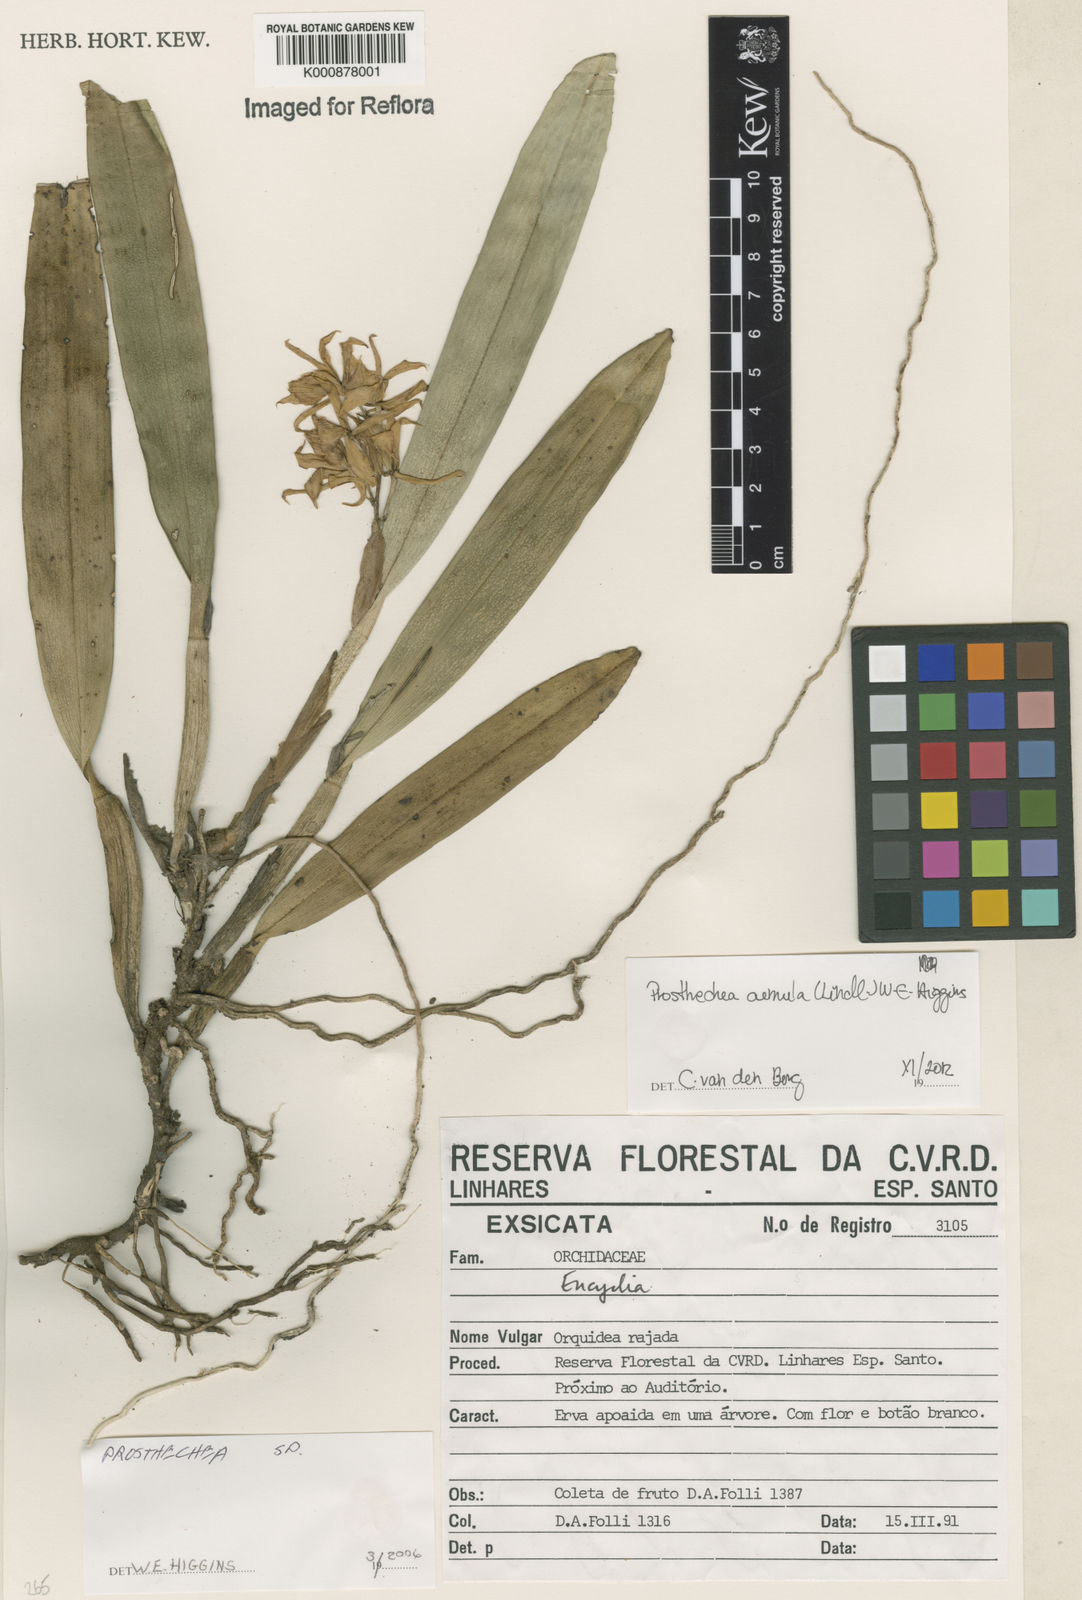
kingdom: Plantae
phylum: Tracheophyta
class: Liliopsida
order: Asparagales
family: Orchidaceae
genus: Prosthechea
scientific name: Prosthechea aemula
